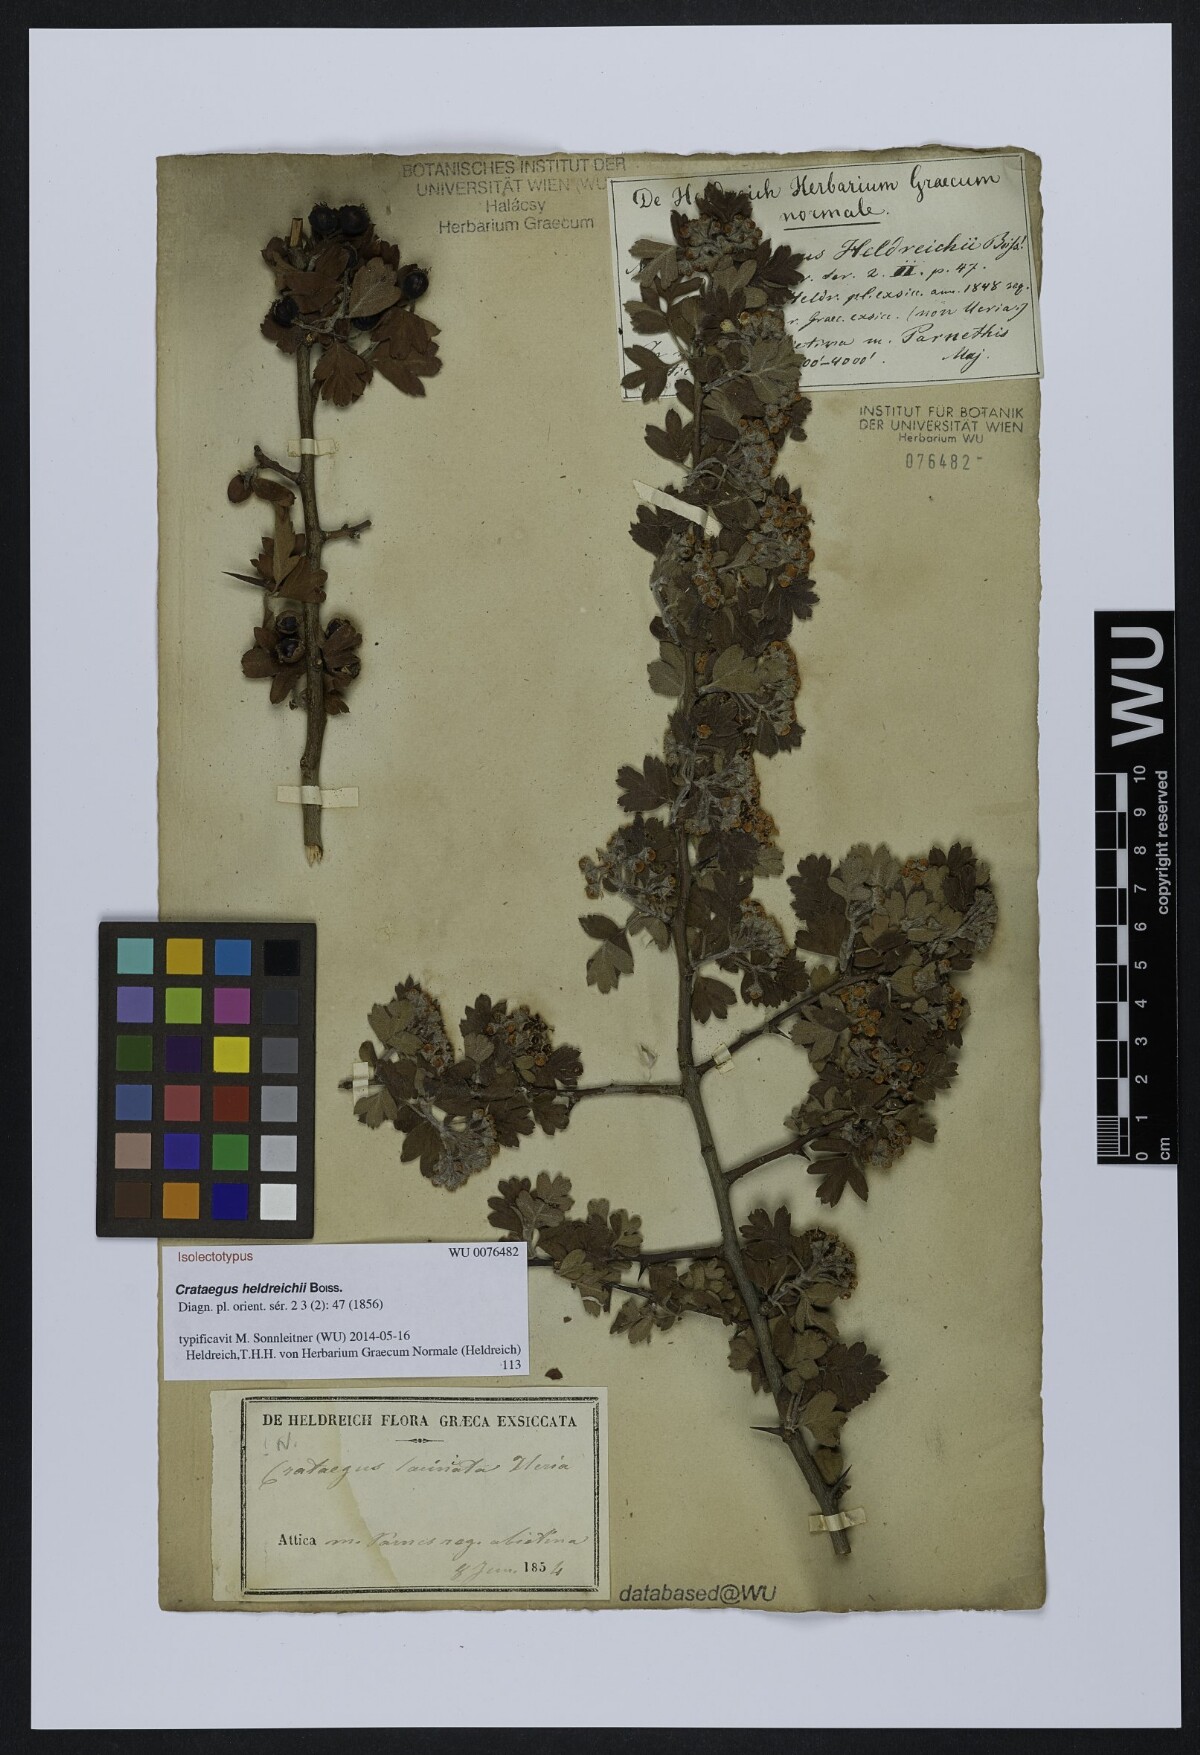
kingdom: Plantae
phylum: Tracheophyta
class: Magnoliopsida
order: Rosales
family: Rosaceae
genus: Crataegus
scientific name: Crataegus heldreichii
